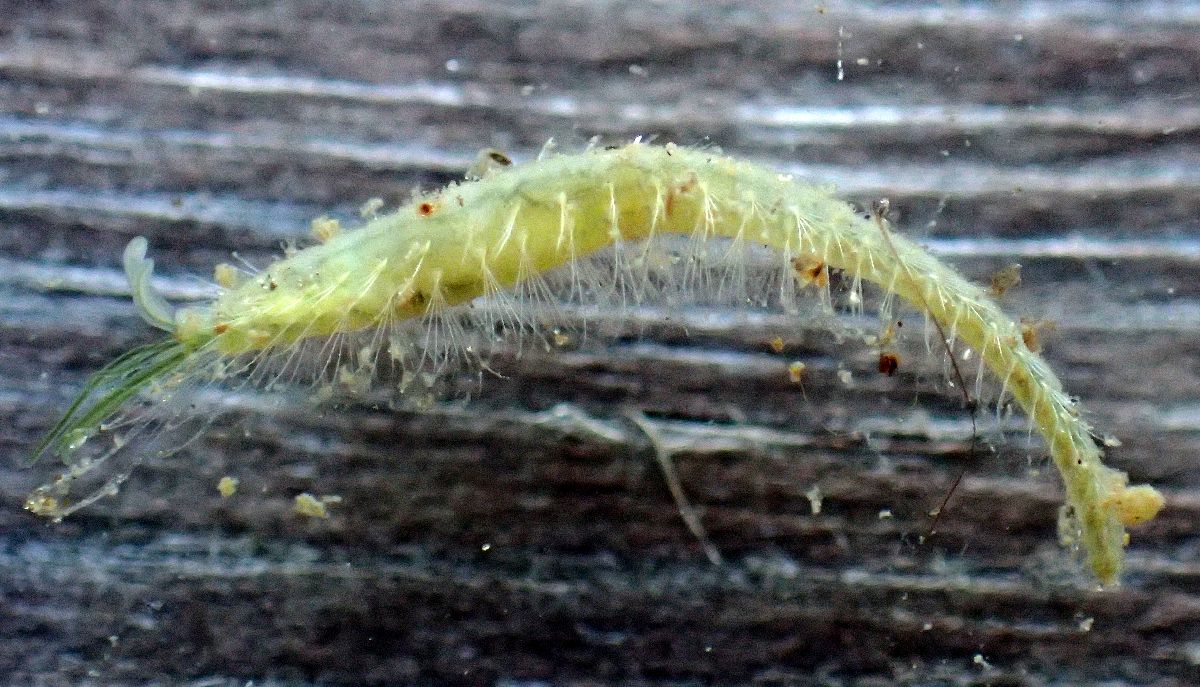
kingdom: Animalia
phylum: Annelida
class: Polychaeta
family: Flabelligeridae
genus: Saphobranchia
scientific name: Saphobranchia longisetosa
